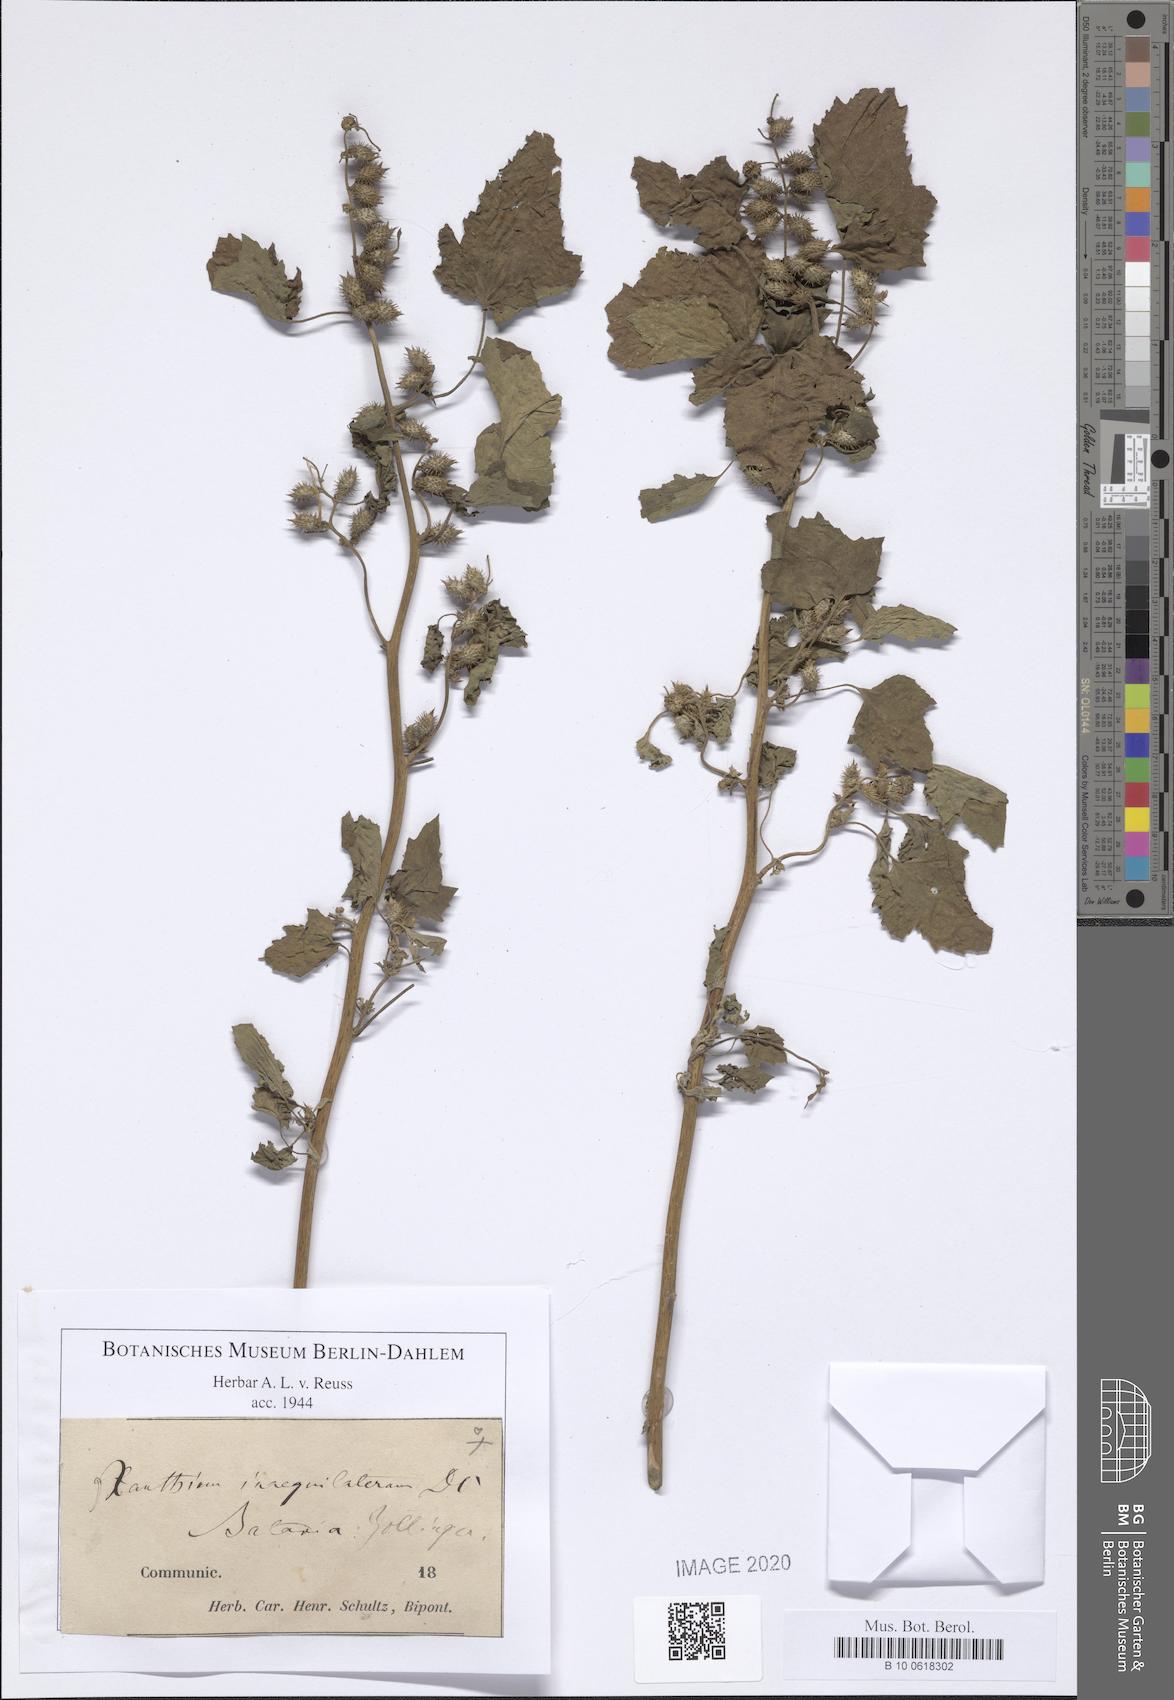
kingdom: Plantae
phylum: Tracheophyta
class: Magnoliopsida
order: Asterales
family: Asteraceae
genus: Xanthium
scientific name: Xanthium strumarium
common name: Rough cocklebur
